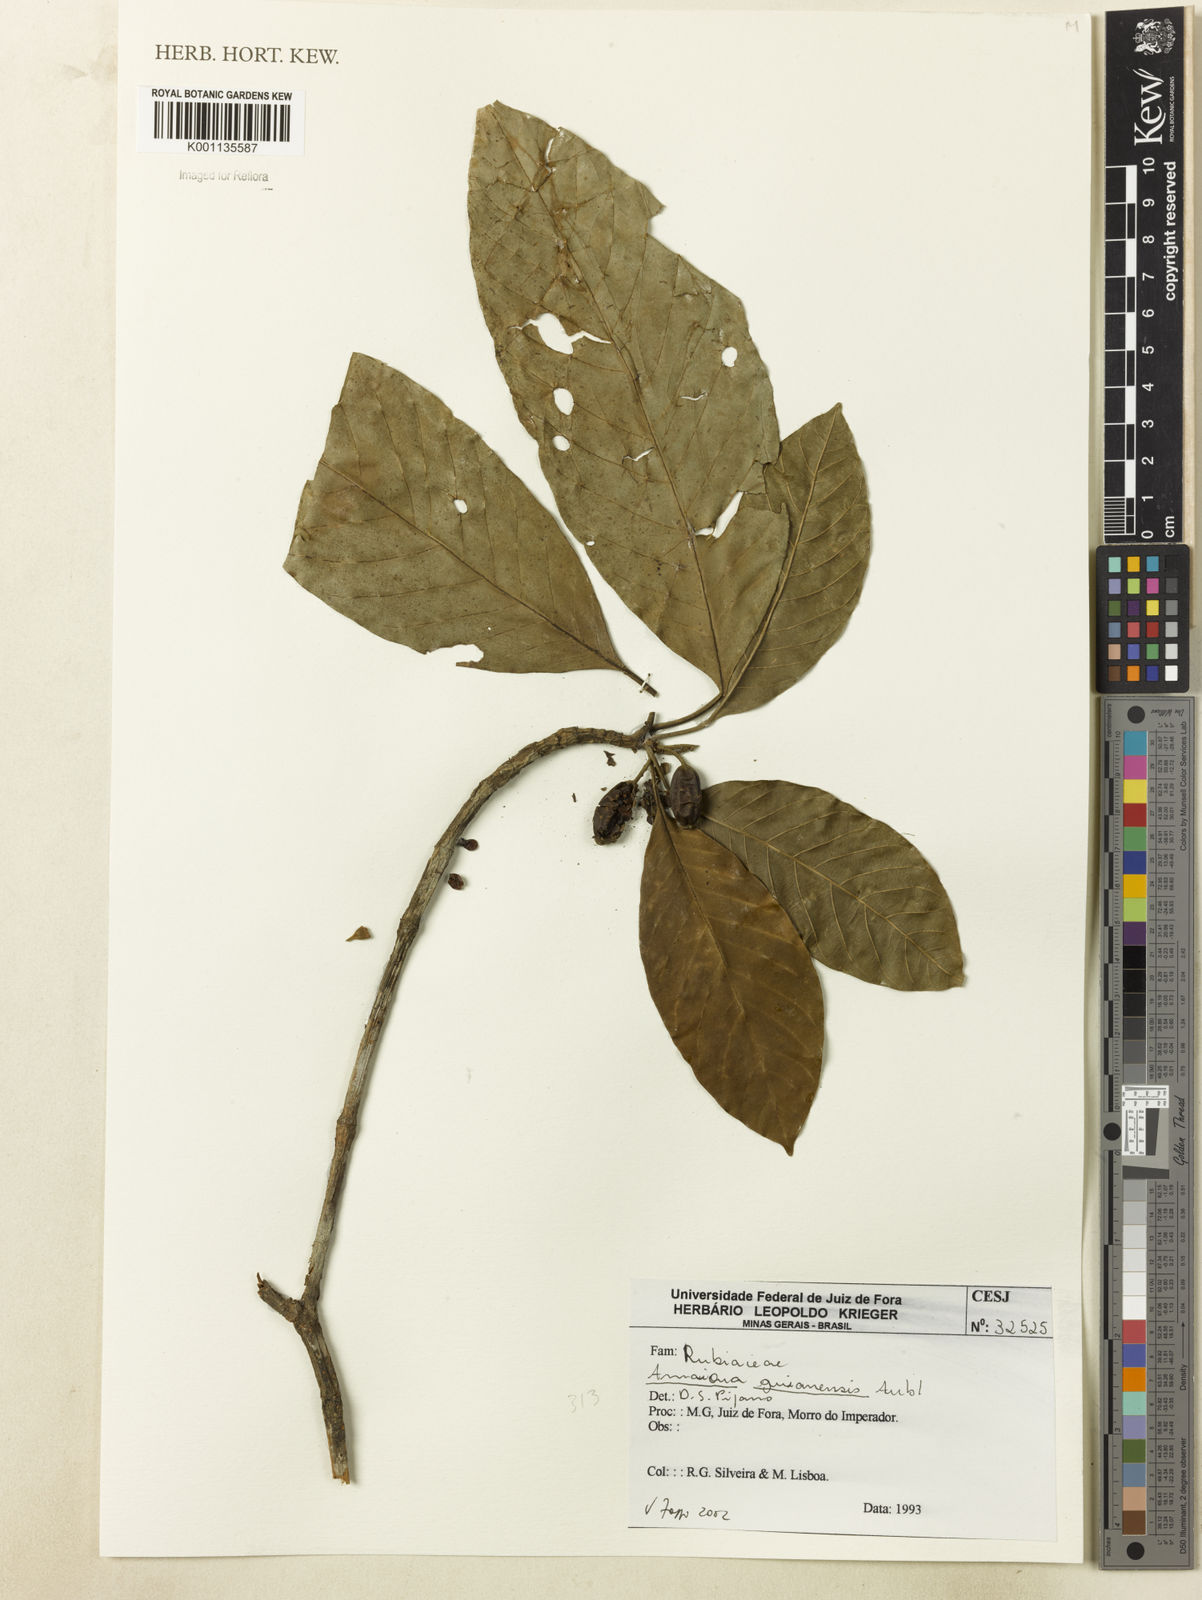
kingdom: Plantae
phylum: Tracheophyta
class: Magnoliopsida
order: Gentianales
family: Rubiaceae
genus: Amaioua
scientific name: Amaioua intermedia
